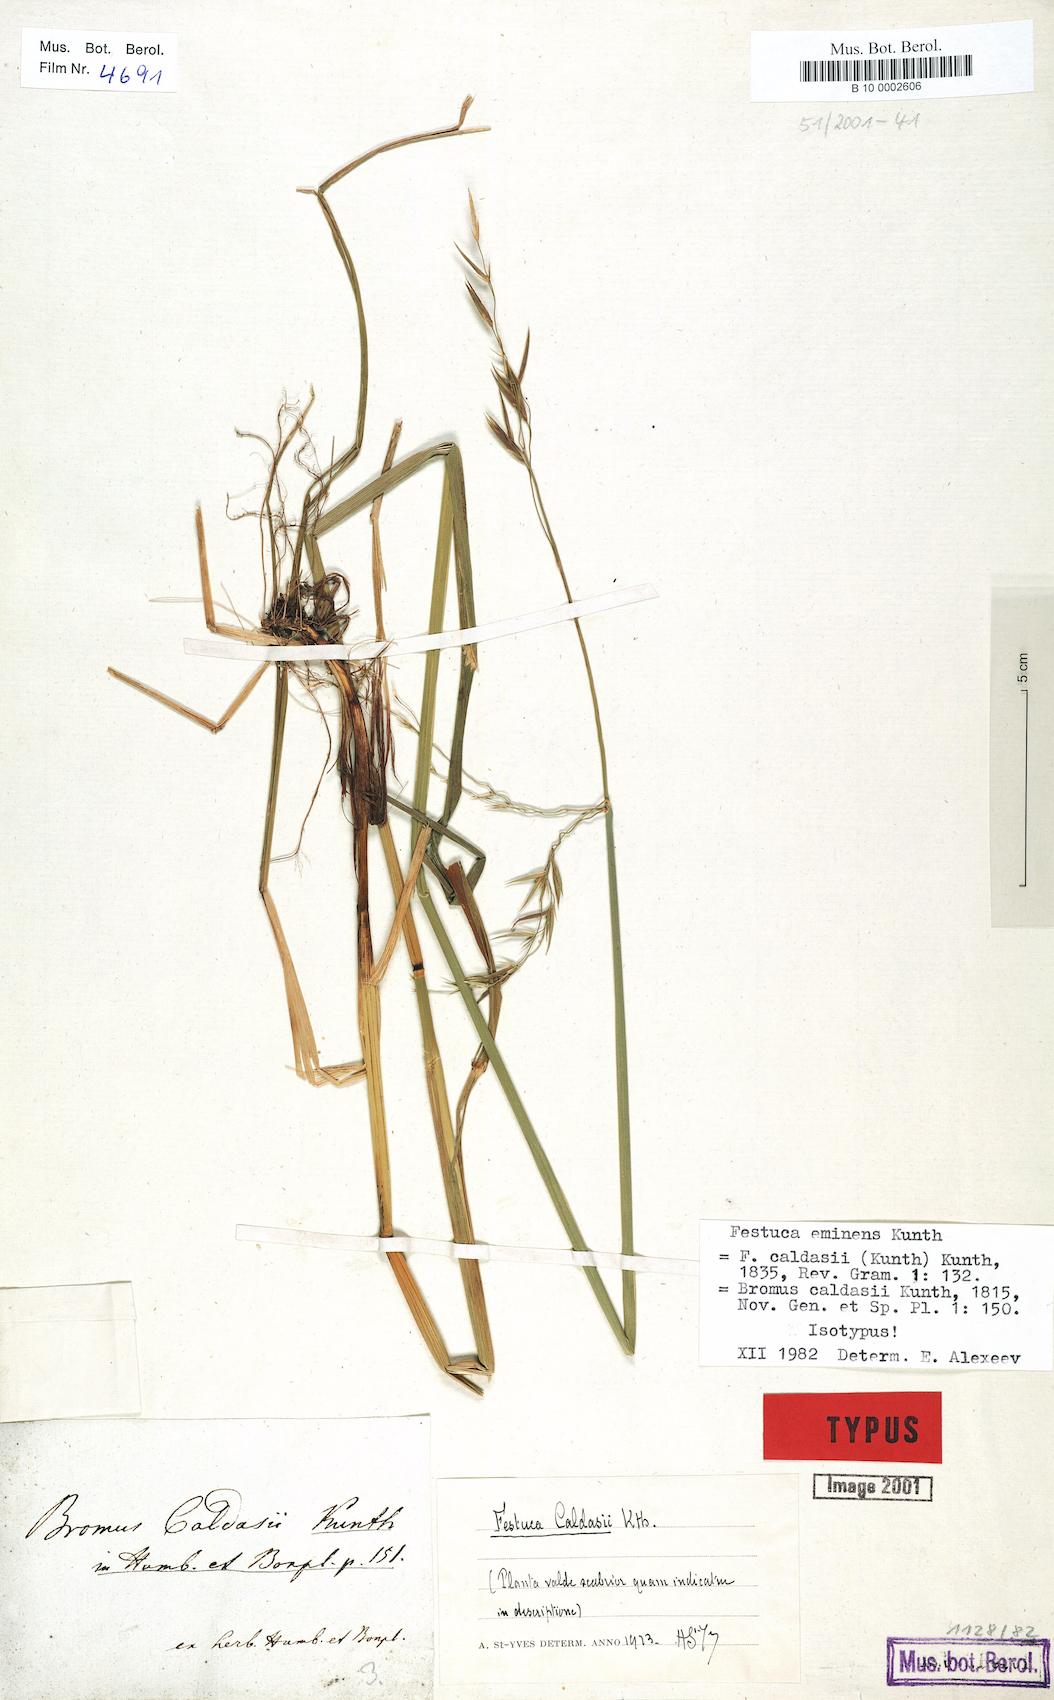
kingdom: Plantae
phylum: Tracheophyta
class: Liliopsida
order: Poales
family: Poaceae
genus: Festuca
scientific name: Festuca
